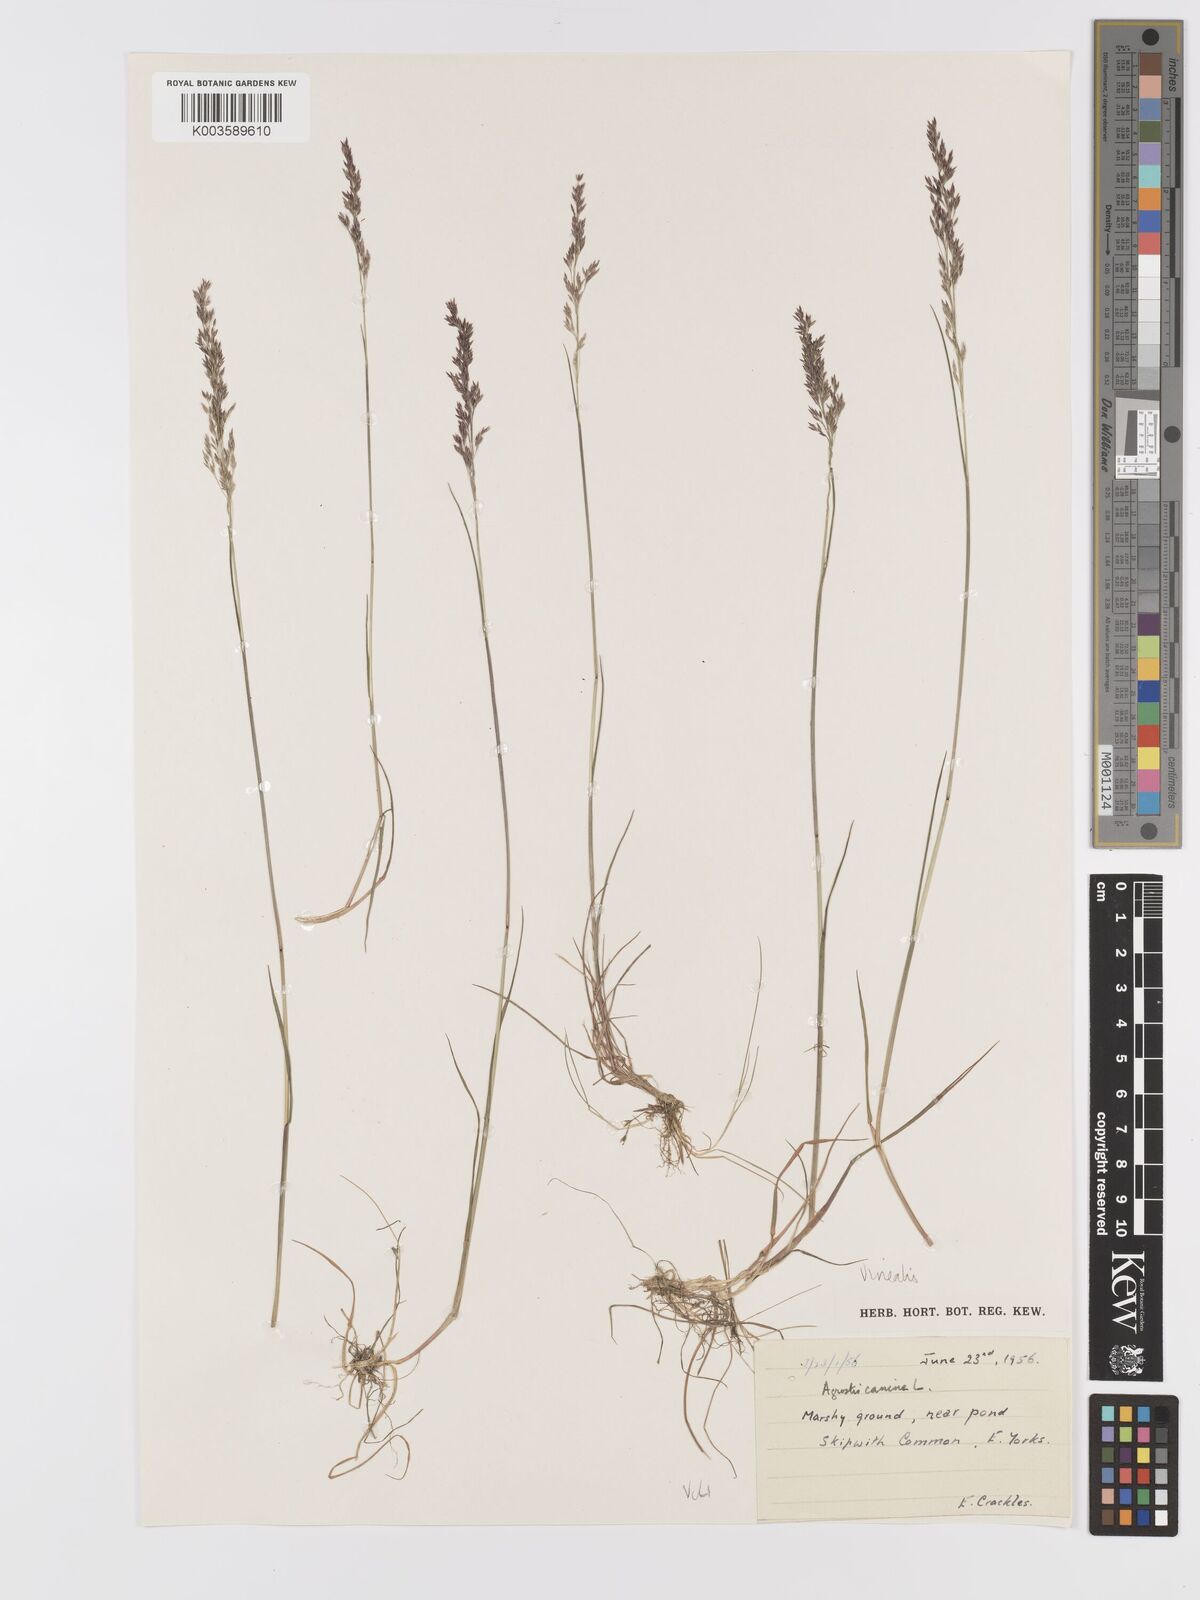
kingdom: Plantae
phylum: Tracheophyta
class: Liliopsida
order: Poales
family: Poaceae
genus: Agrostis
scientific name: Agrostis
